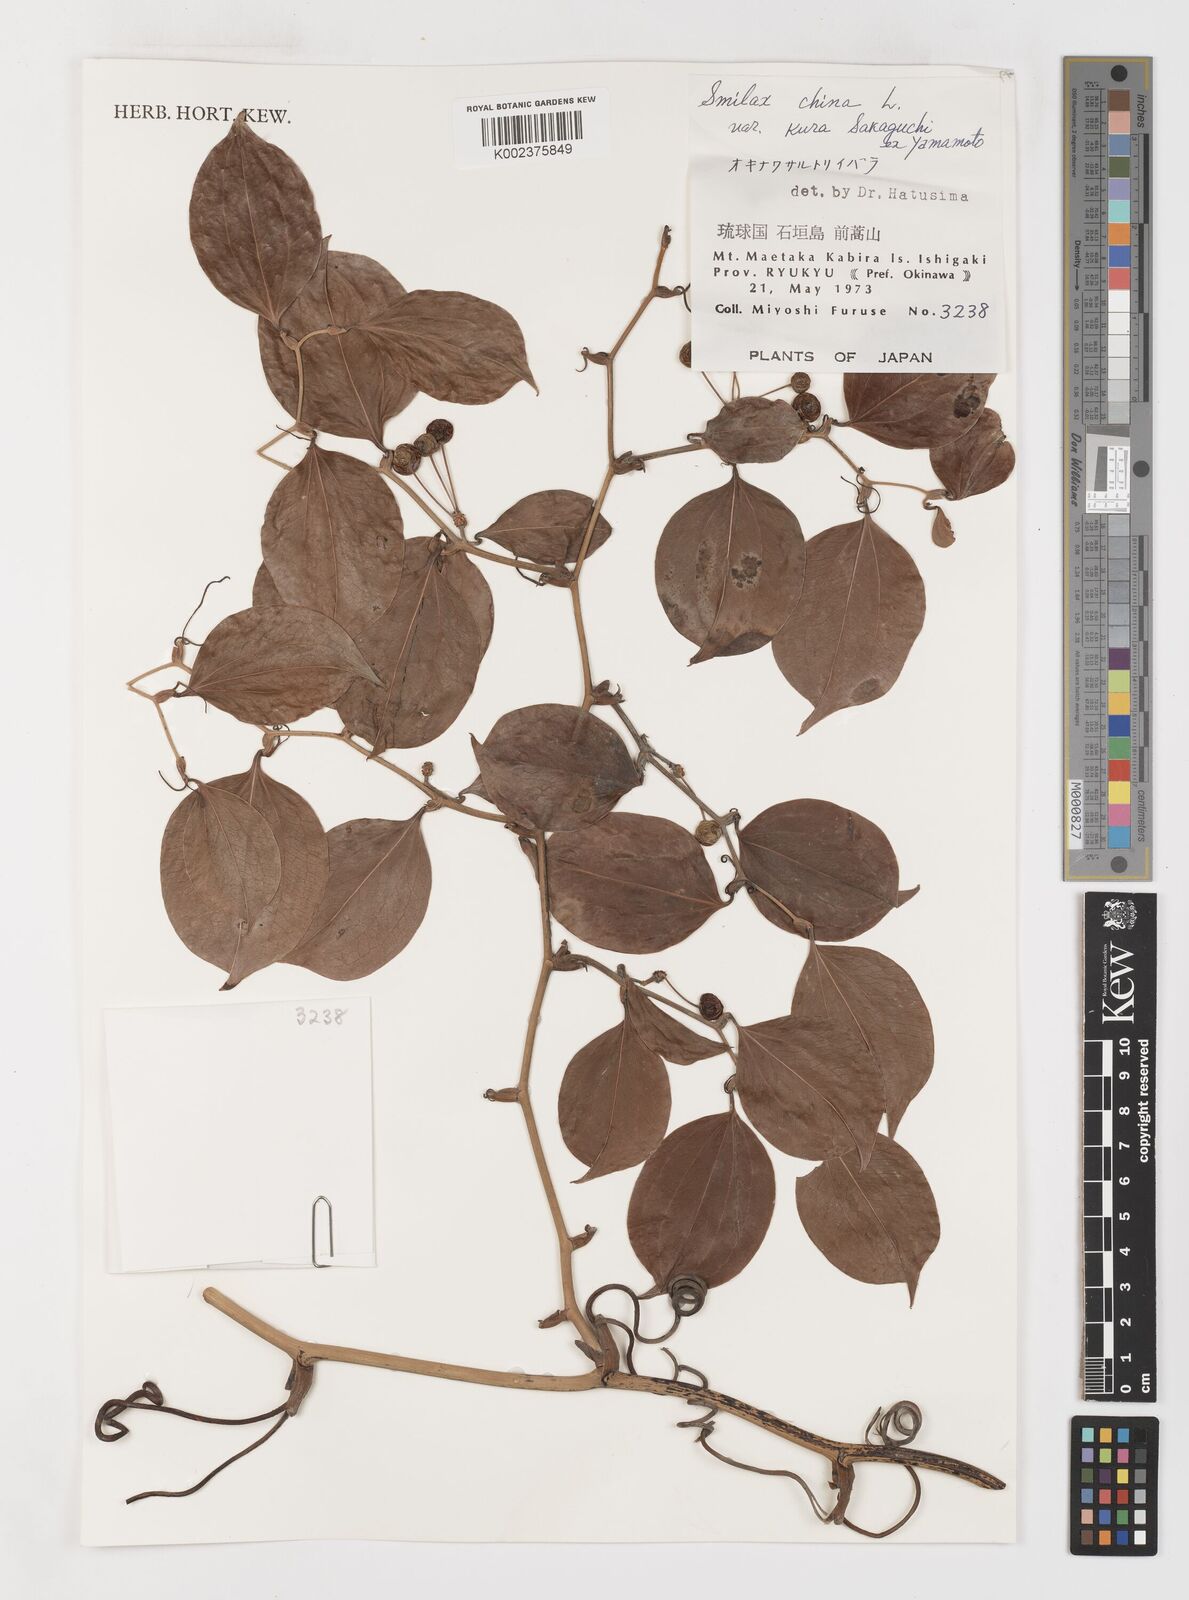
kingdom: Plantae
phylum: Tracheophyta
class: Liliopsida
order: Liliales
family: Smilacaceae
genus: Smilax
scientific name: Smilax china
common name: Chinaroot
